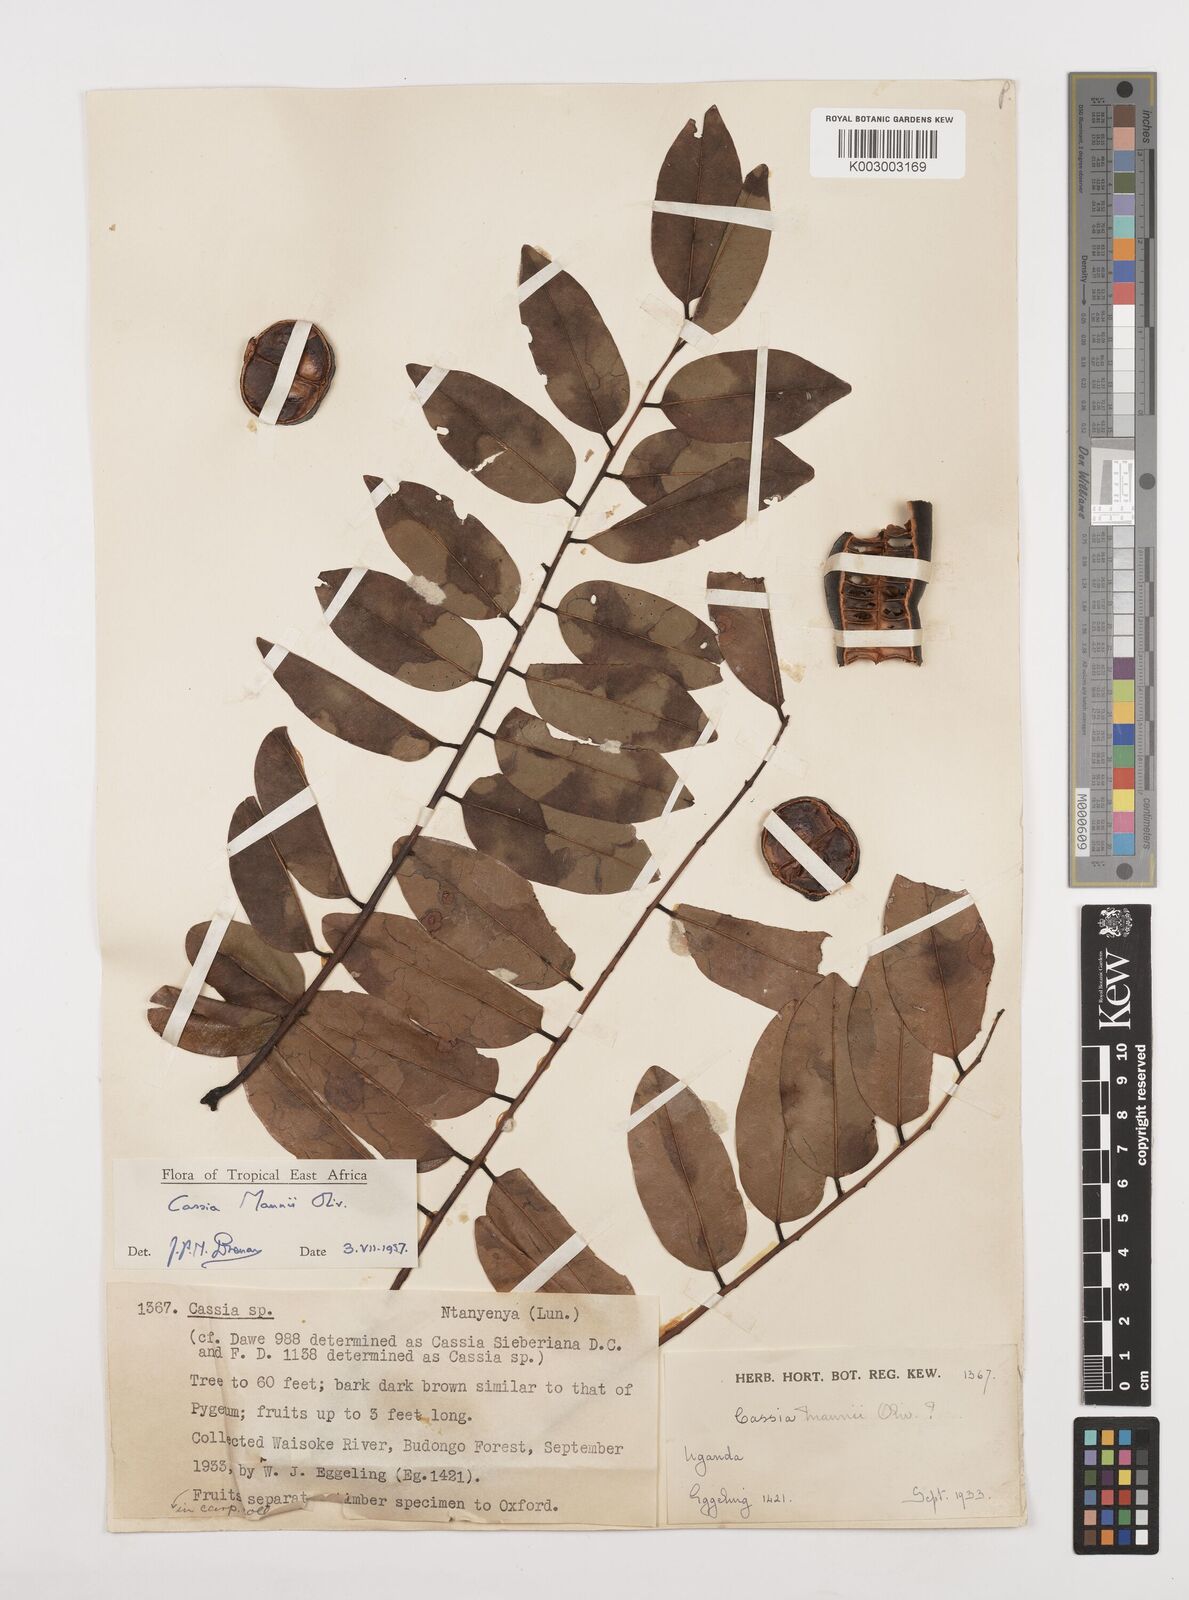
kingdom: Plantae
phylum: Tracheophyta
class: Magnoliopsida
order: Fabales
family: Fabaceae
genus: Cassia
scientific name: Cassia mannii
